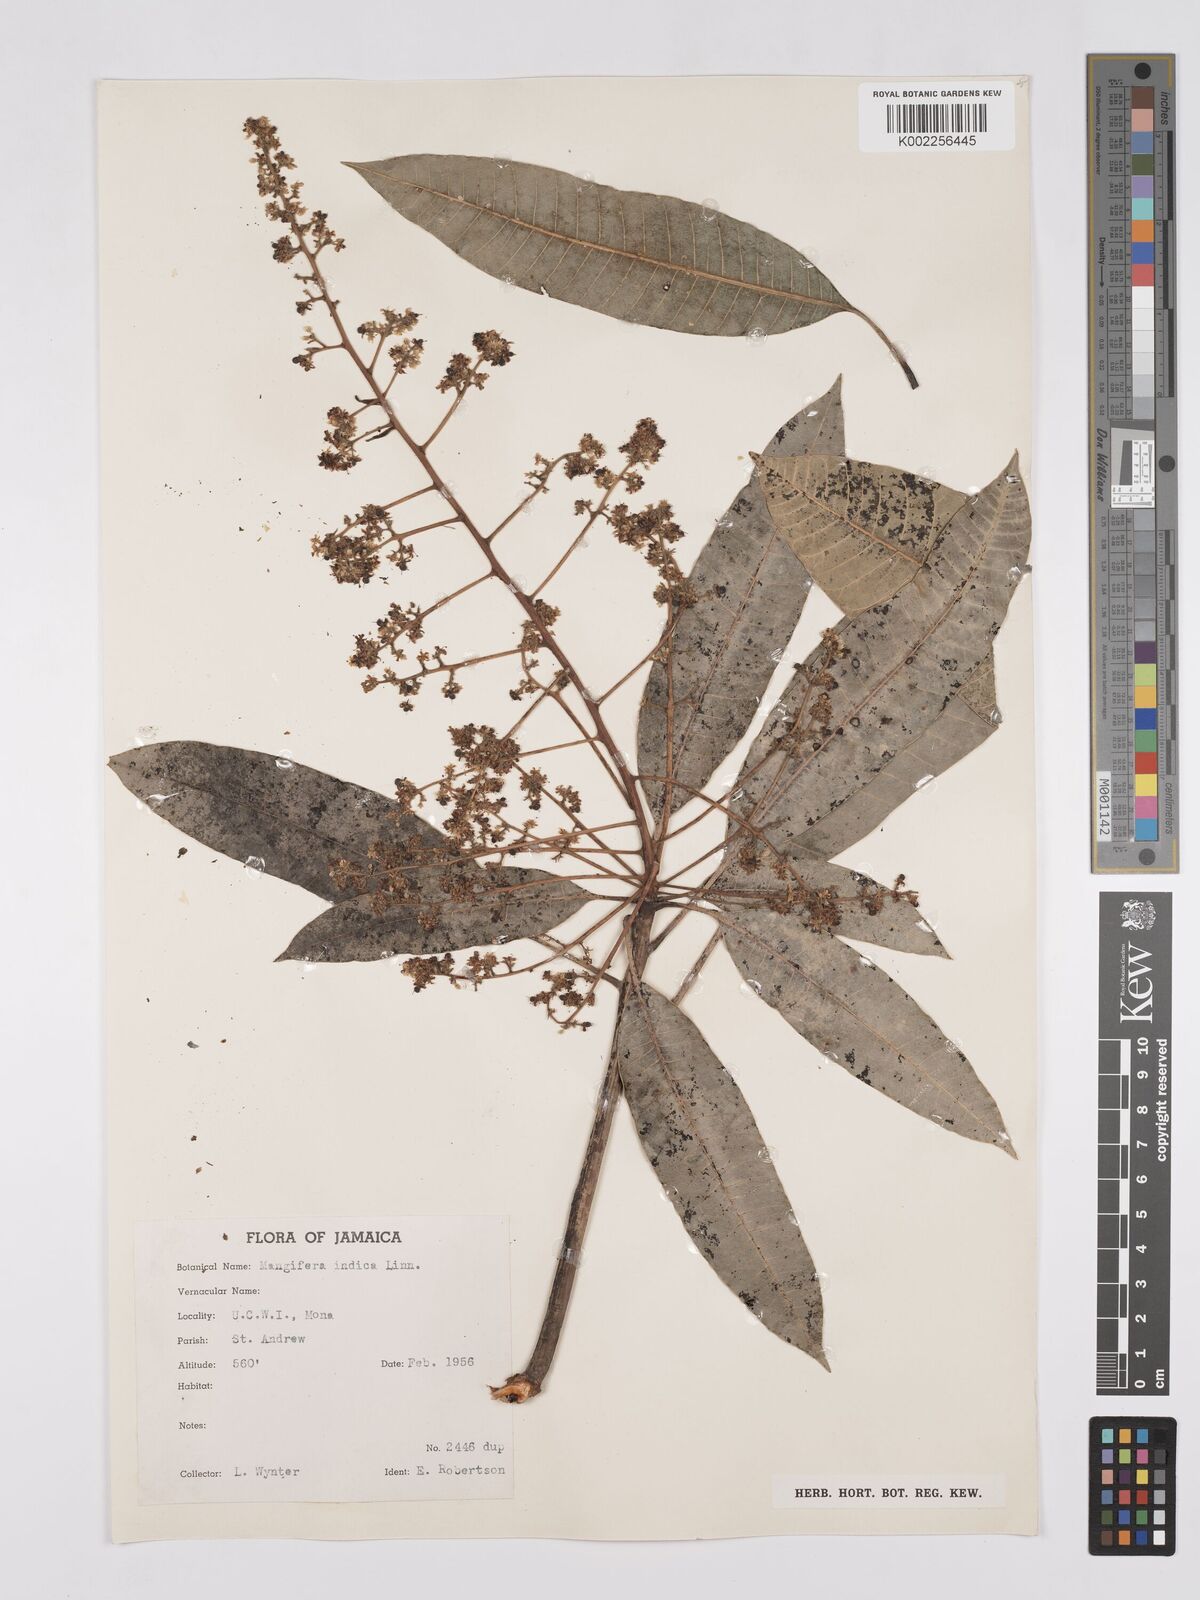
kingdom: Plantae
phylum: Tracheophyta
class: Magnoliopsida
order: Sapindales
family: Anacardiaceae
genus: Mangifera
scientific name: Mangifera indica
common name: Mango
